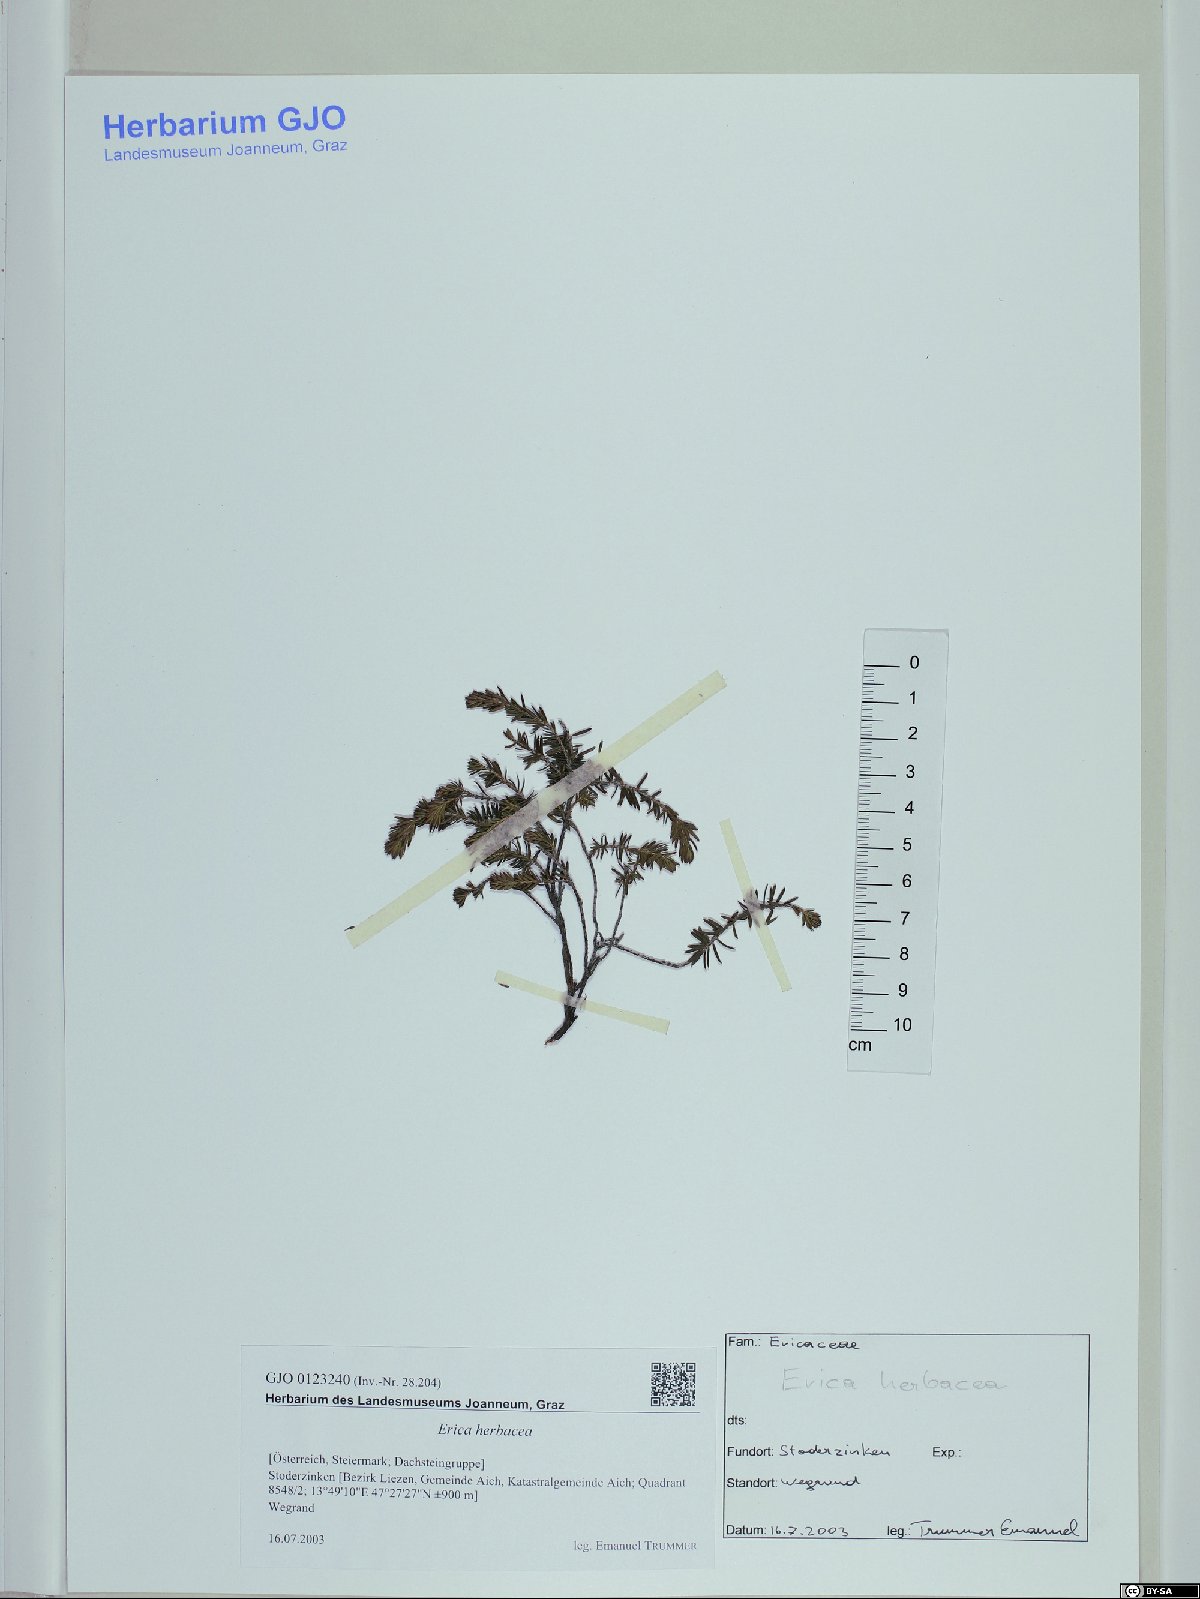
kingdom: Plantae
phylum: Tracheophyta
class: Magnoliopsida
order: Ericales
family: Ericaceae
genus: Erica
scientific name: Erica carnea
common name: Winter heath
